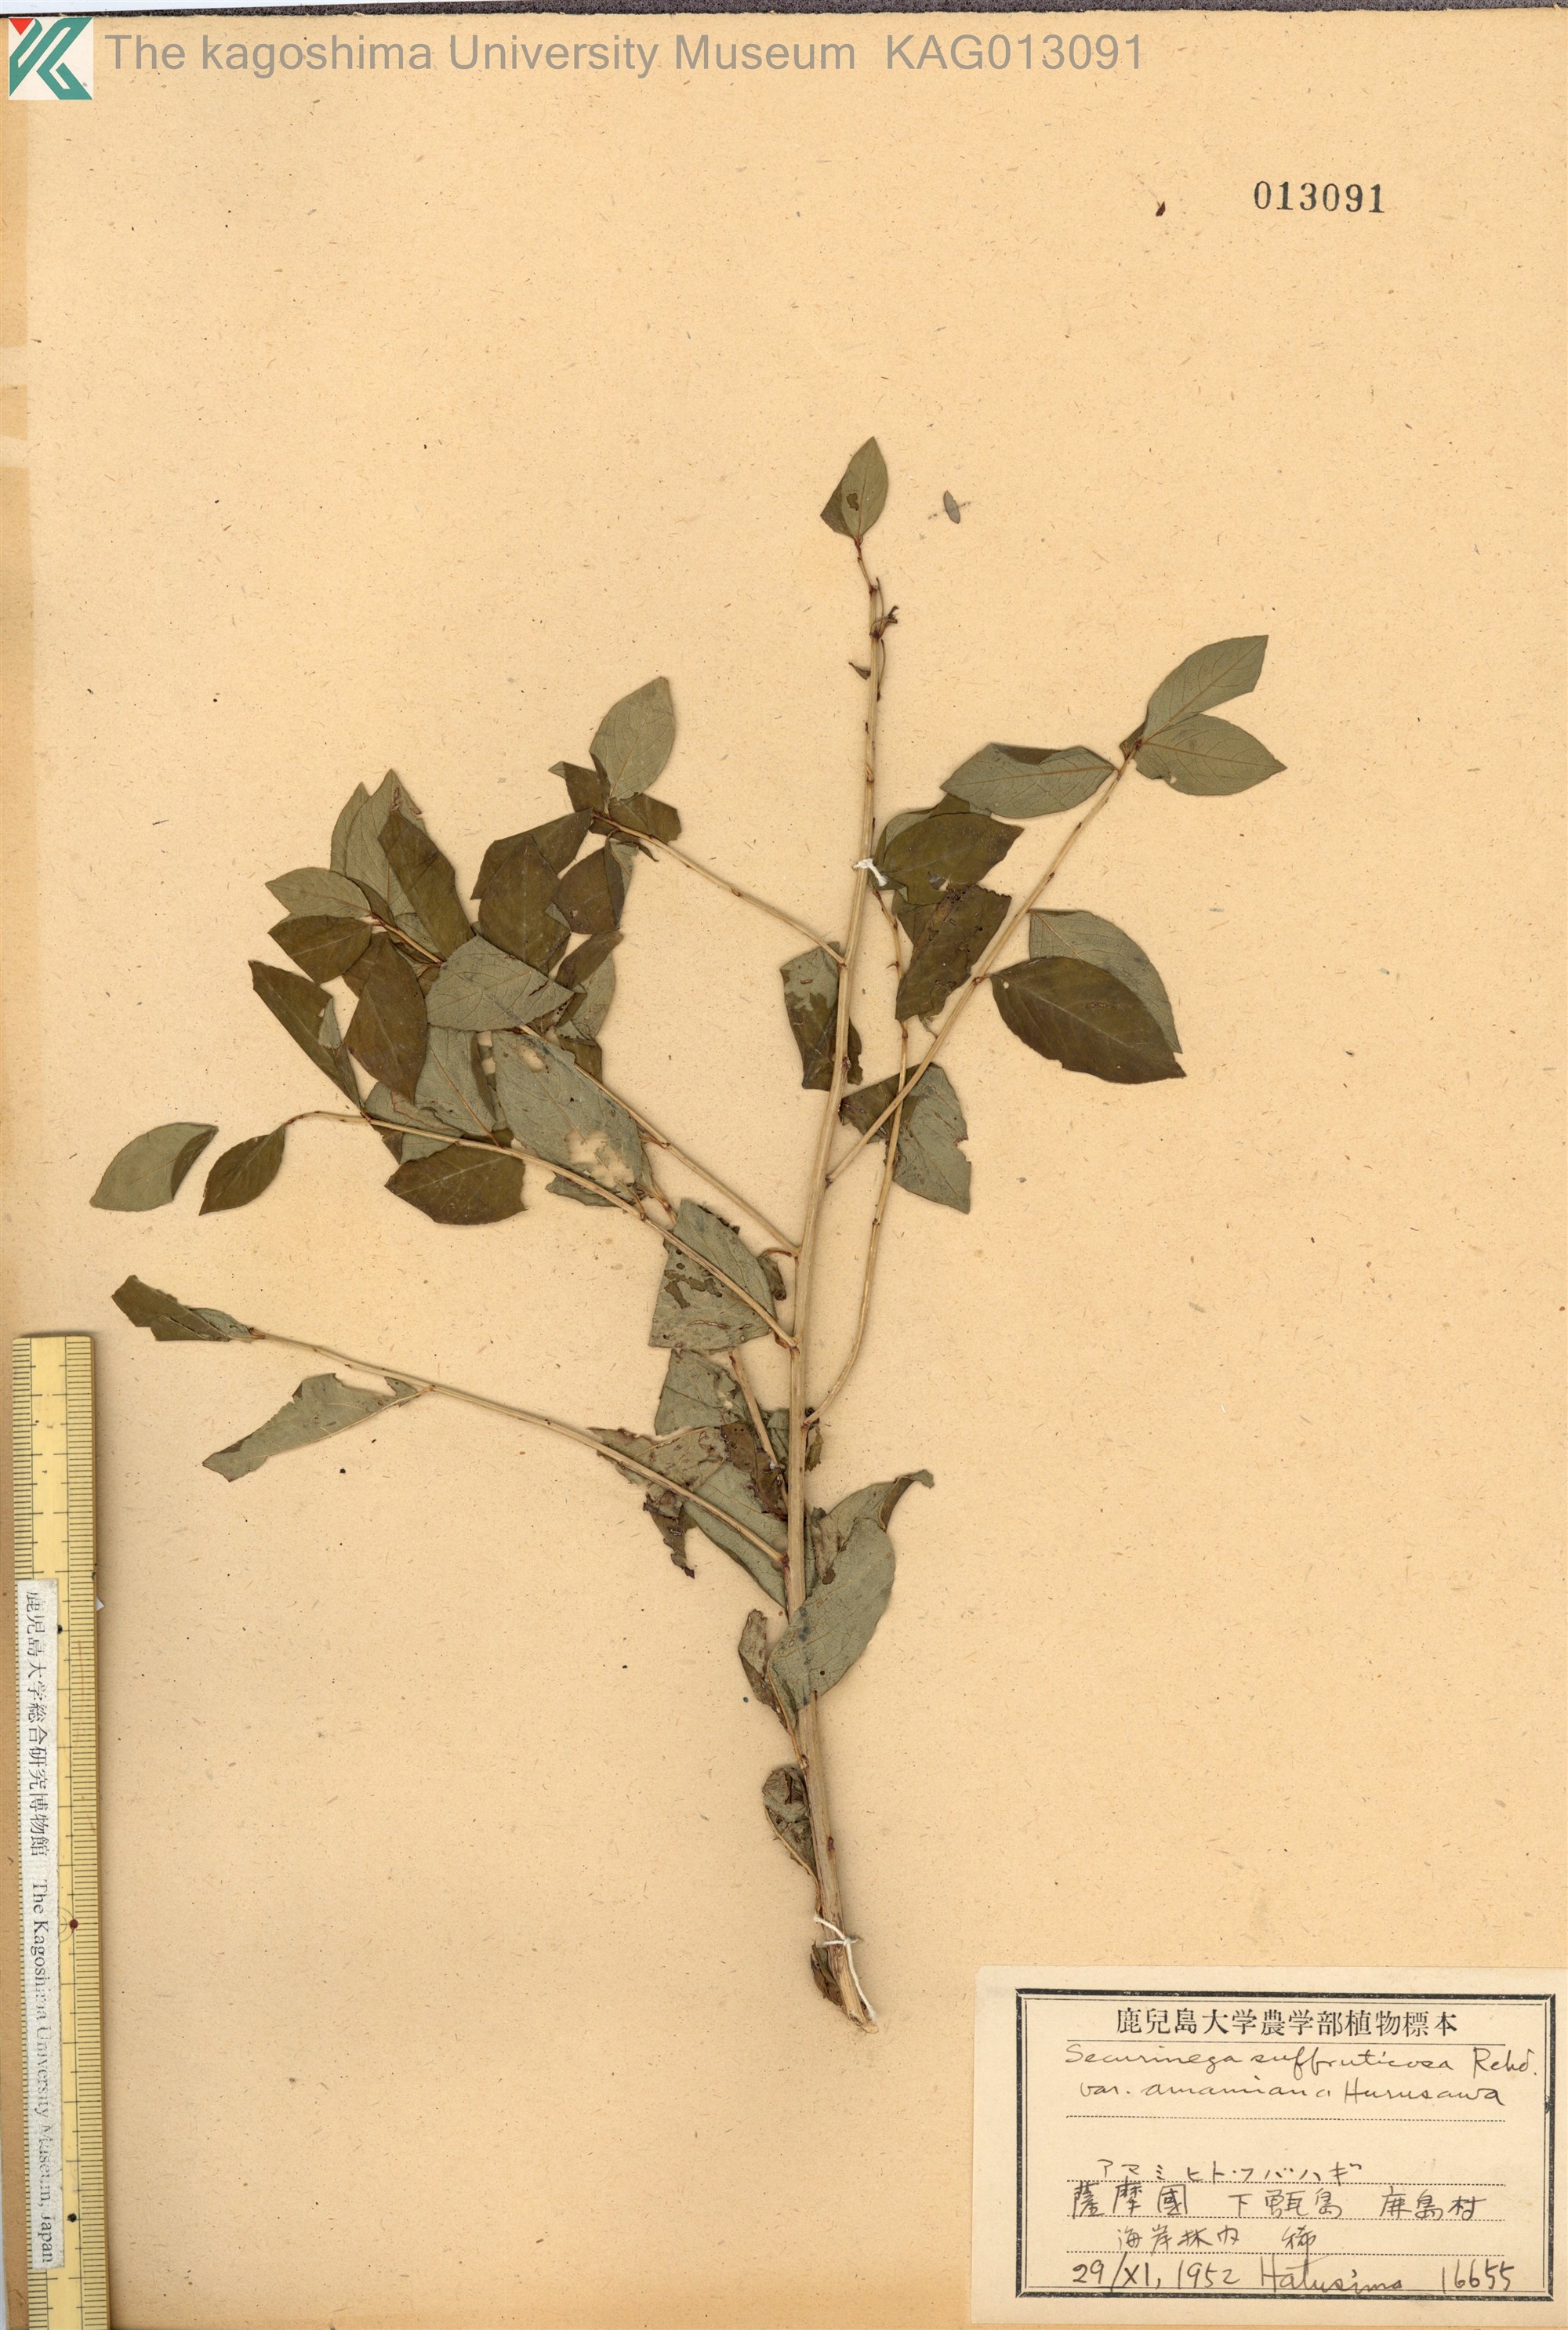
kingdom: Plantae
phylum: Tracheophyta
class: Magnoliopsida
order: Malpighiales
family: Phyllanthaceae
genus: Flueggea
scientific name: Flueggea suffruticosa
